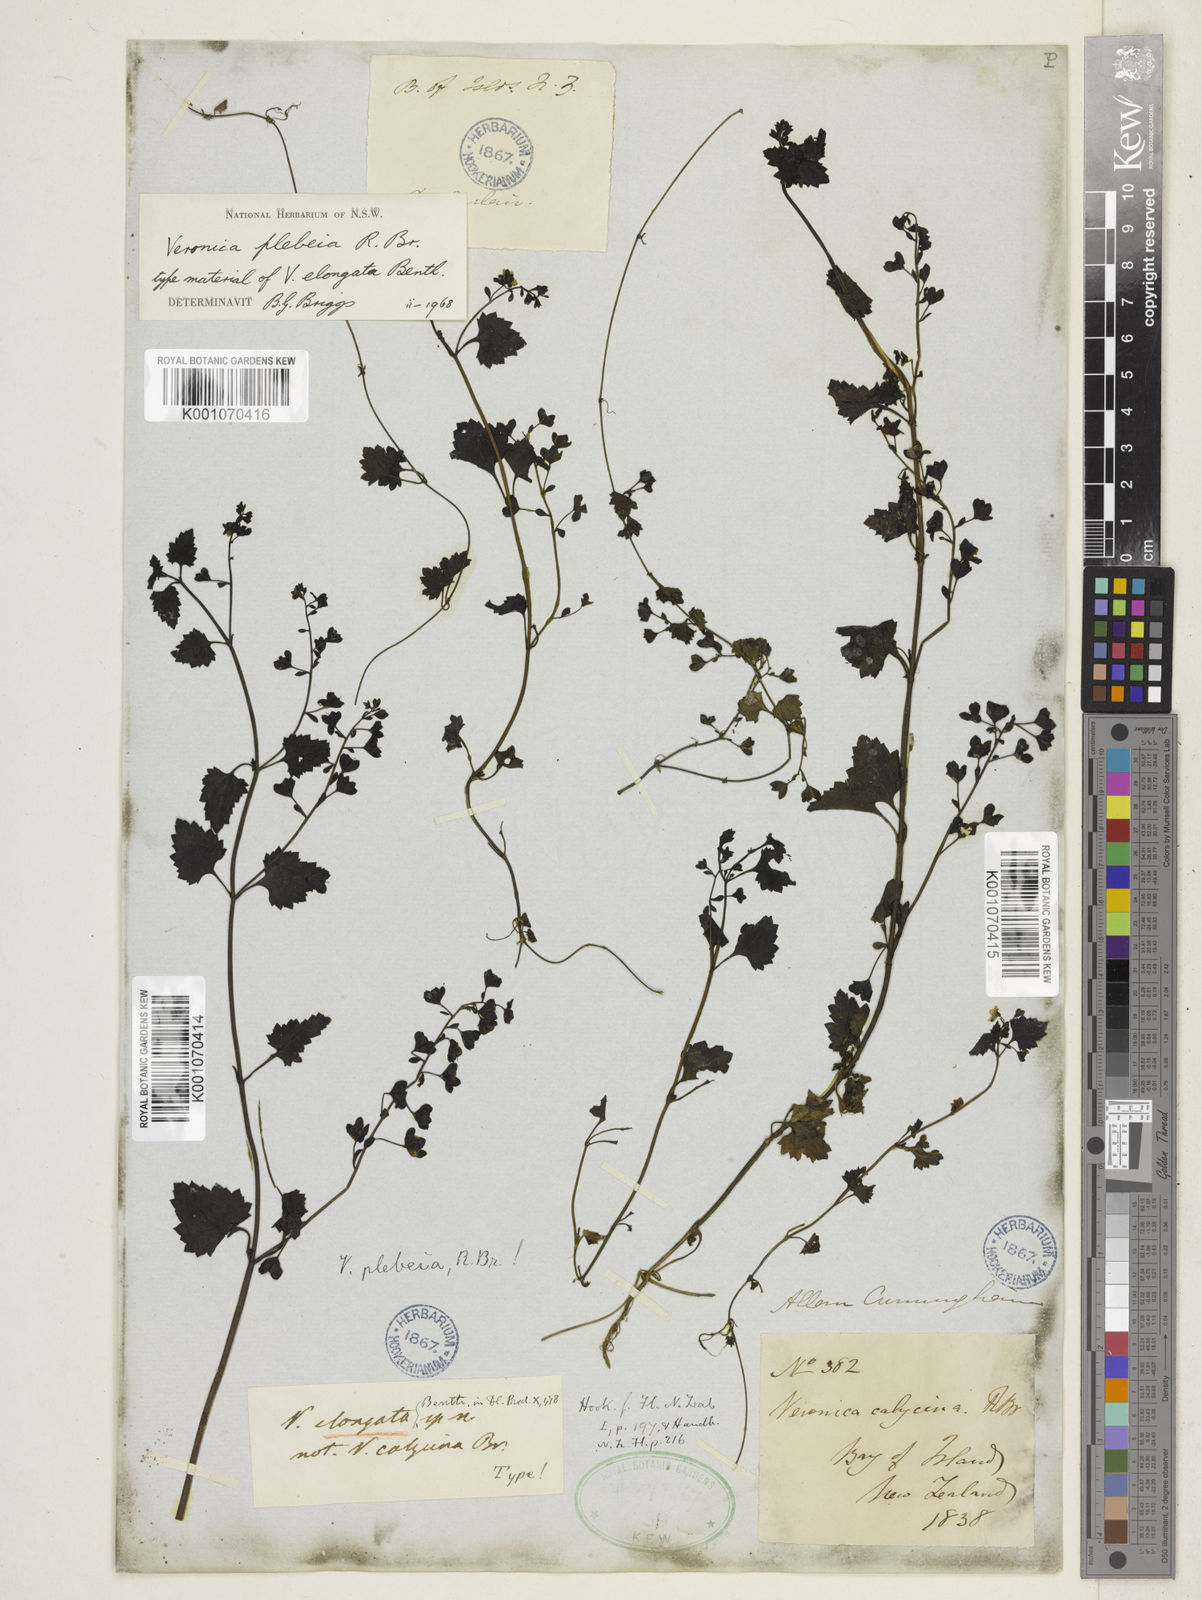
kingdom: Plantae
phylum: Tracheophyta
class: Magnoliopsida
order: Lamiales
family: Plantaginaceae
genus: Veronica
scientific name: Veronica plebeia
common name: Speedwell
